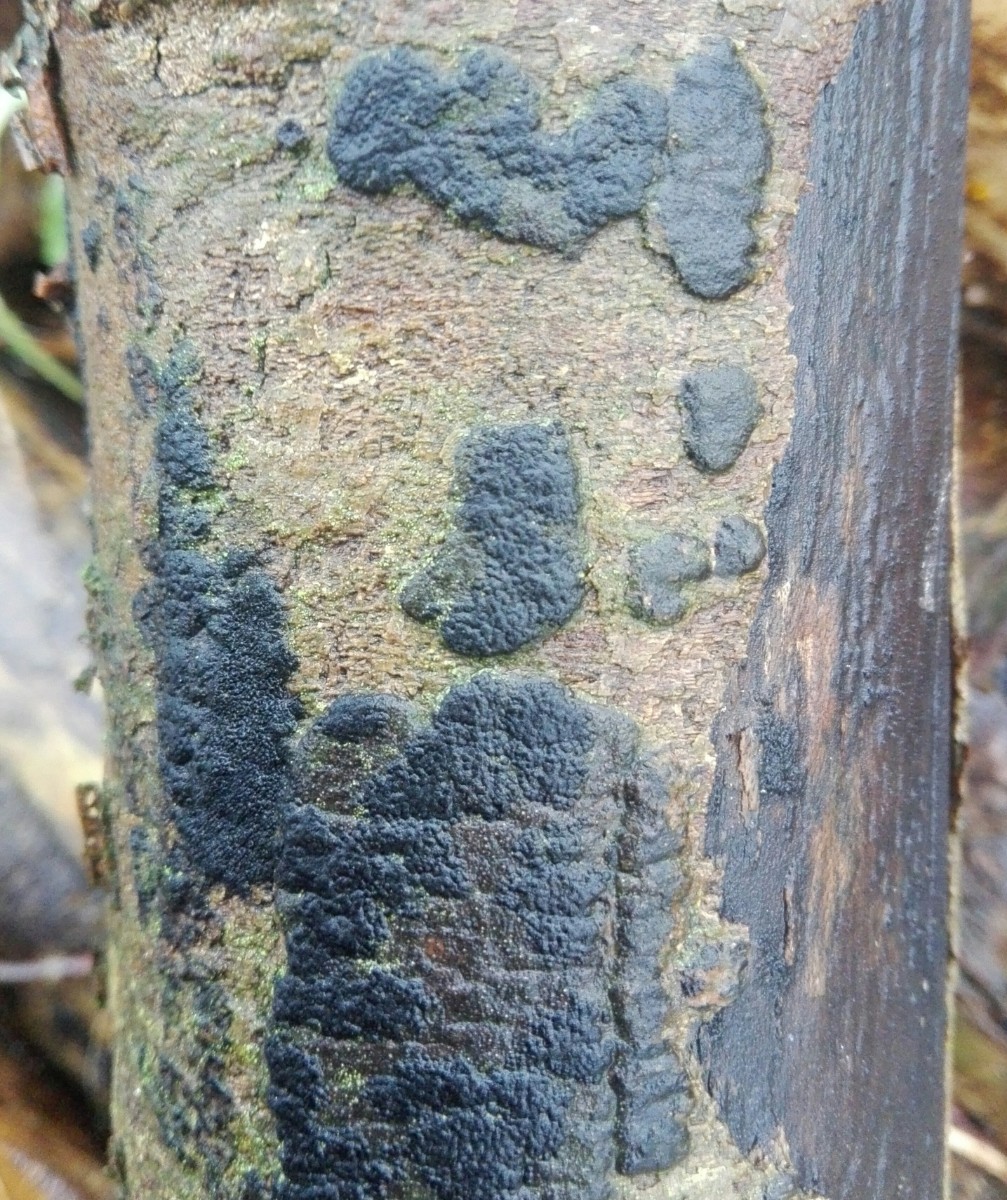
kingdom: Fungi
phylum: Ascomycota
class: Sordariomycetes
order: Xylariales
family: Diatrypaceae
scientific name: Diatrypaceae
